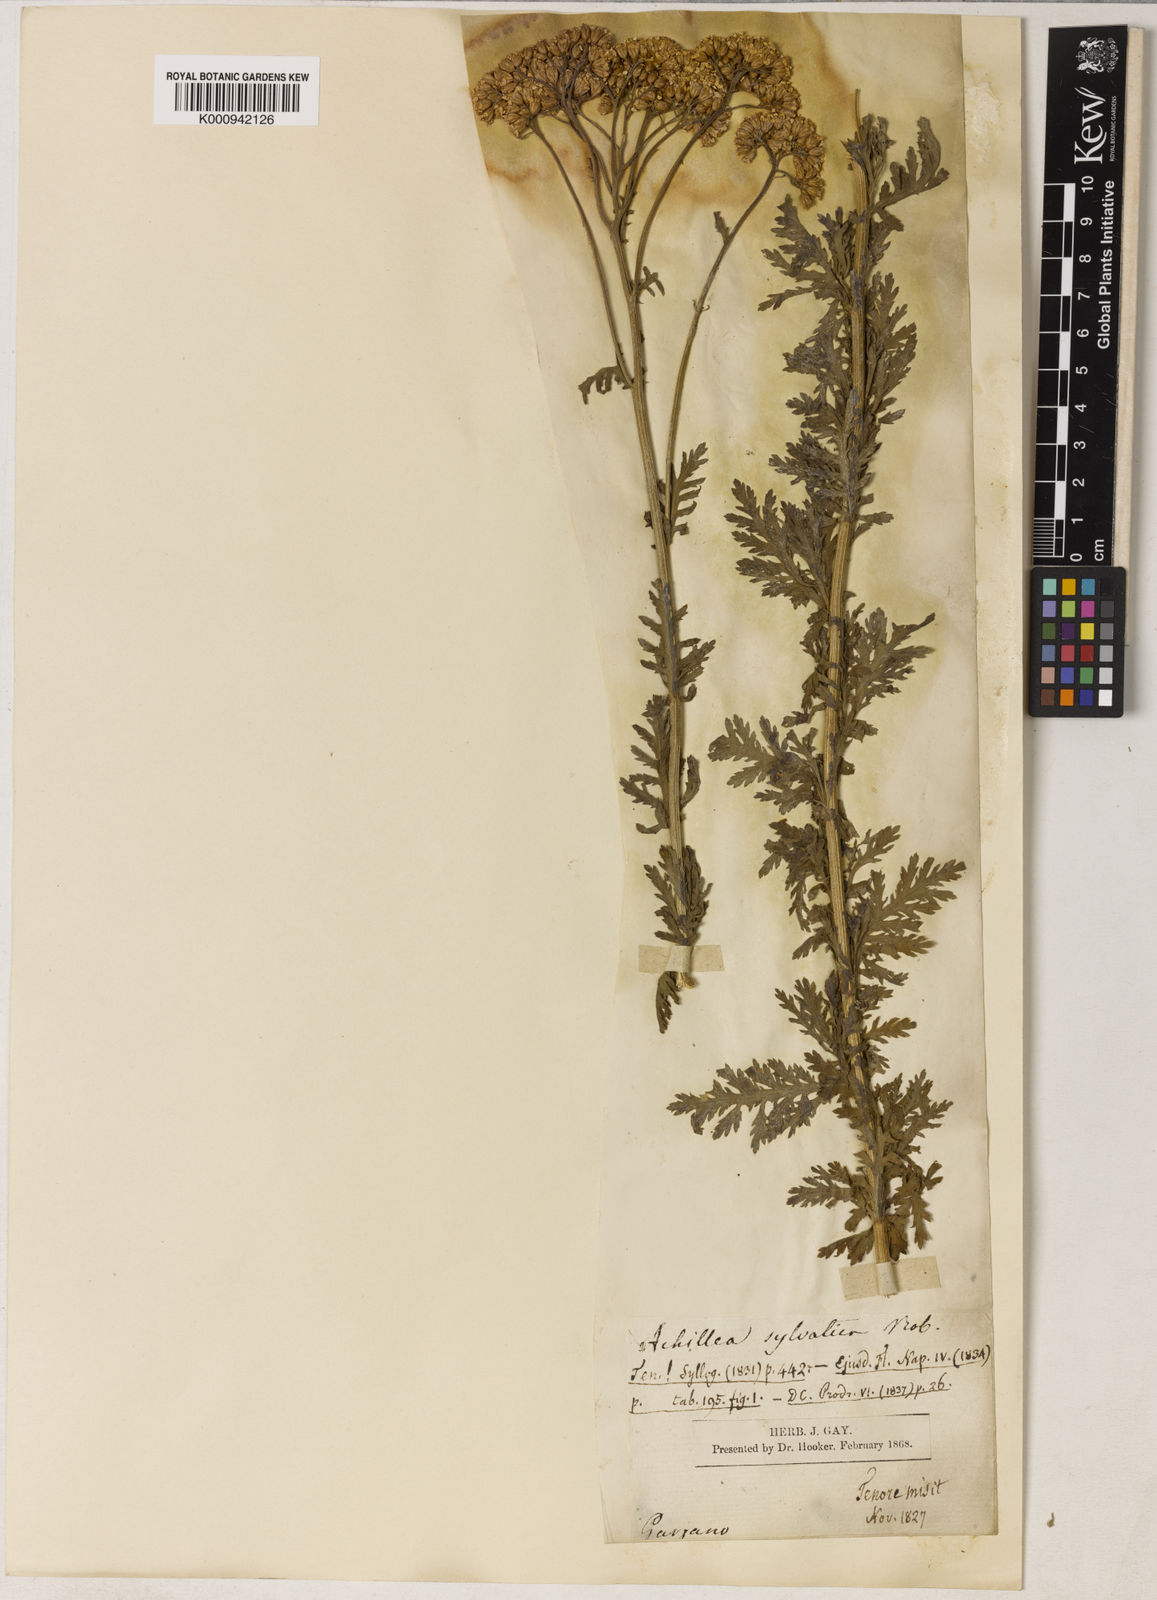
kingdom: Plantae
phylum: Tracheophyta
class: Magnoliopsida
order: Asterales
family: Asteraceae
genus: Achillea
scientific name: Achillea ligustica
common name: Southern yarrow
